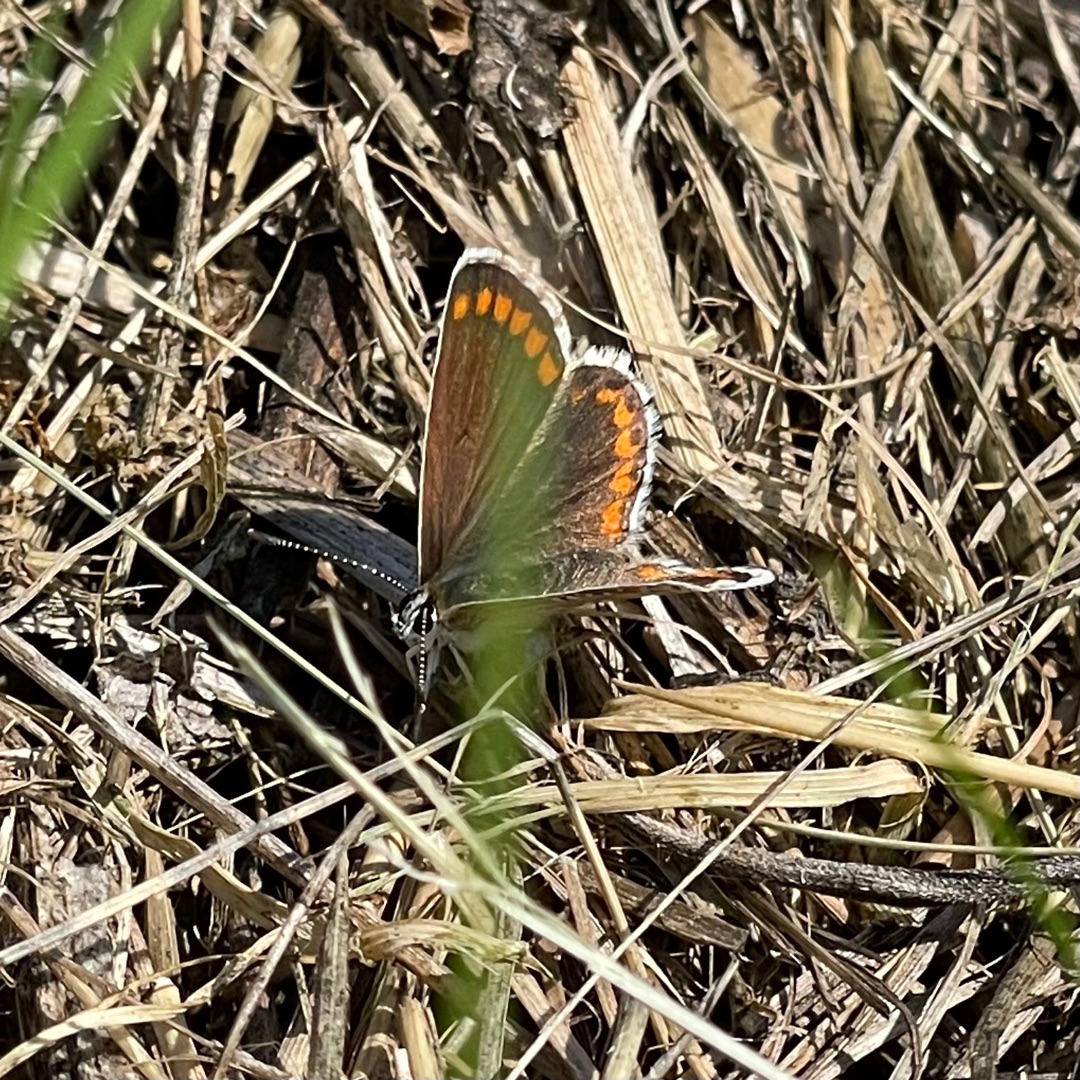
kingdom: Animalia
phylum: Arthropoda
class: Insecta
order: Lepidoptera
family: Lycaenidae
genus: Aricia
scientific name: Aricia agestis
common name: Rødplettet blåfugl
